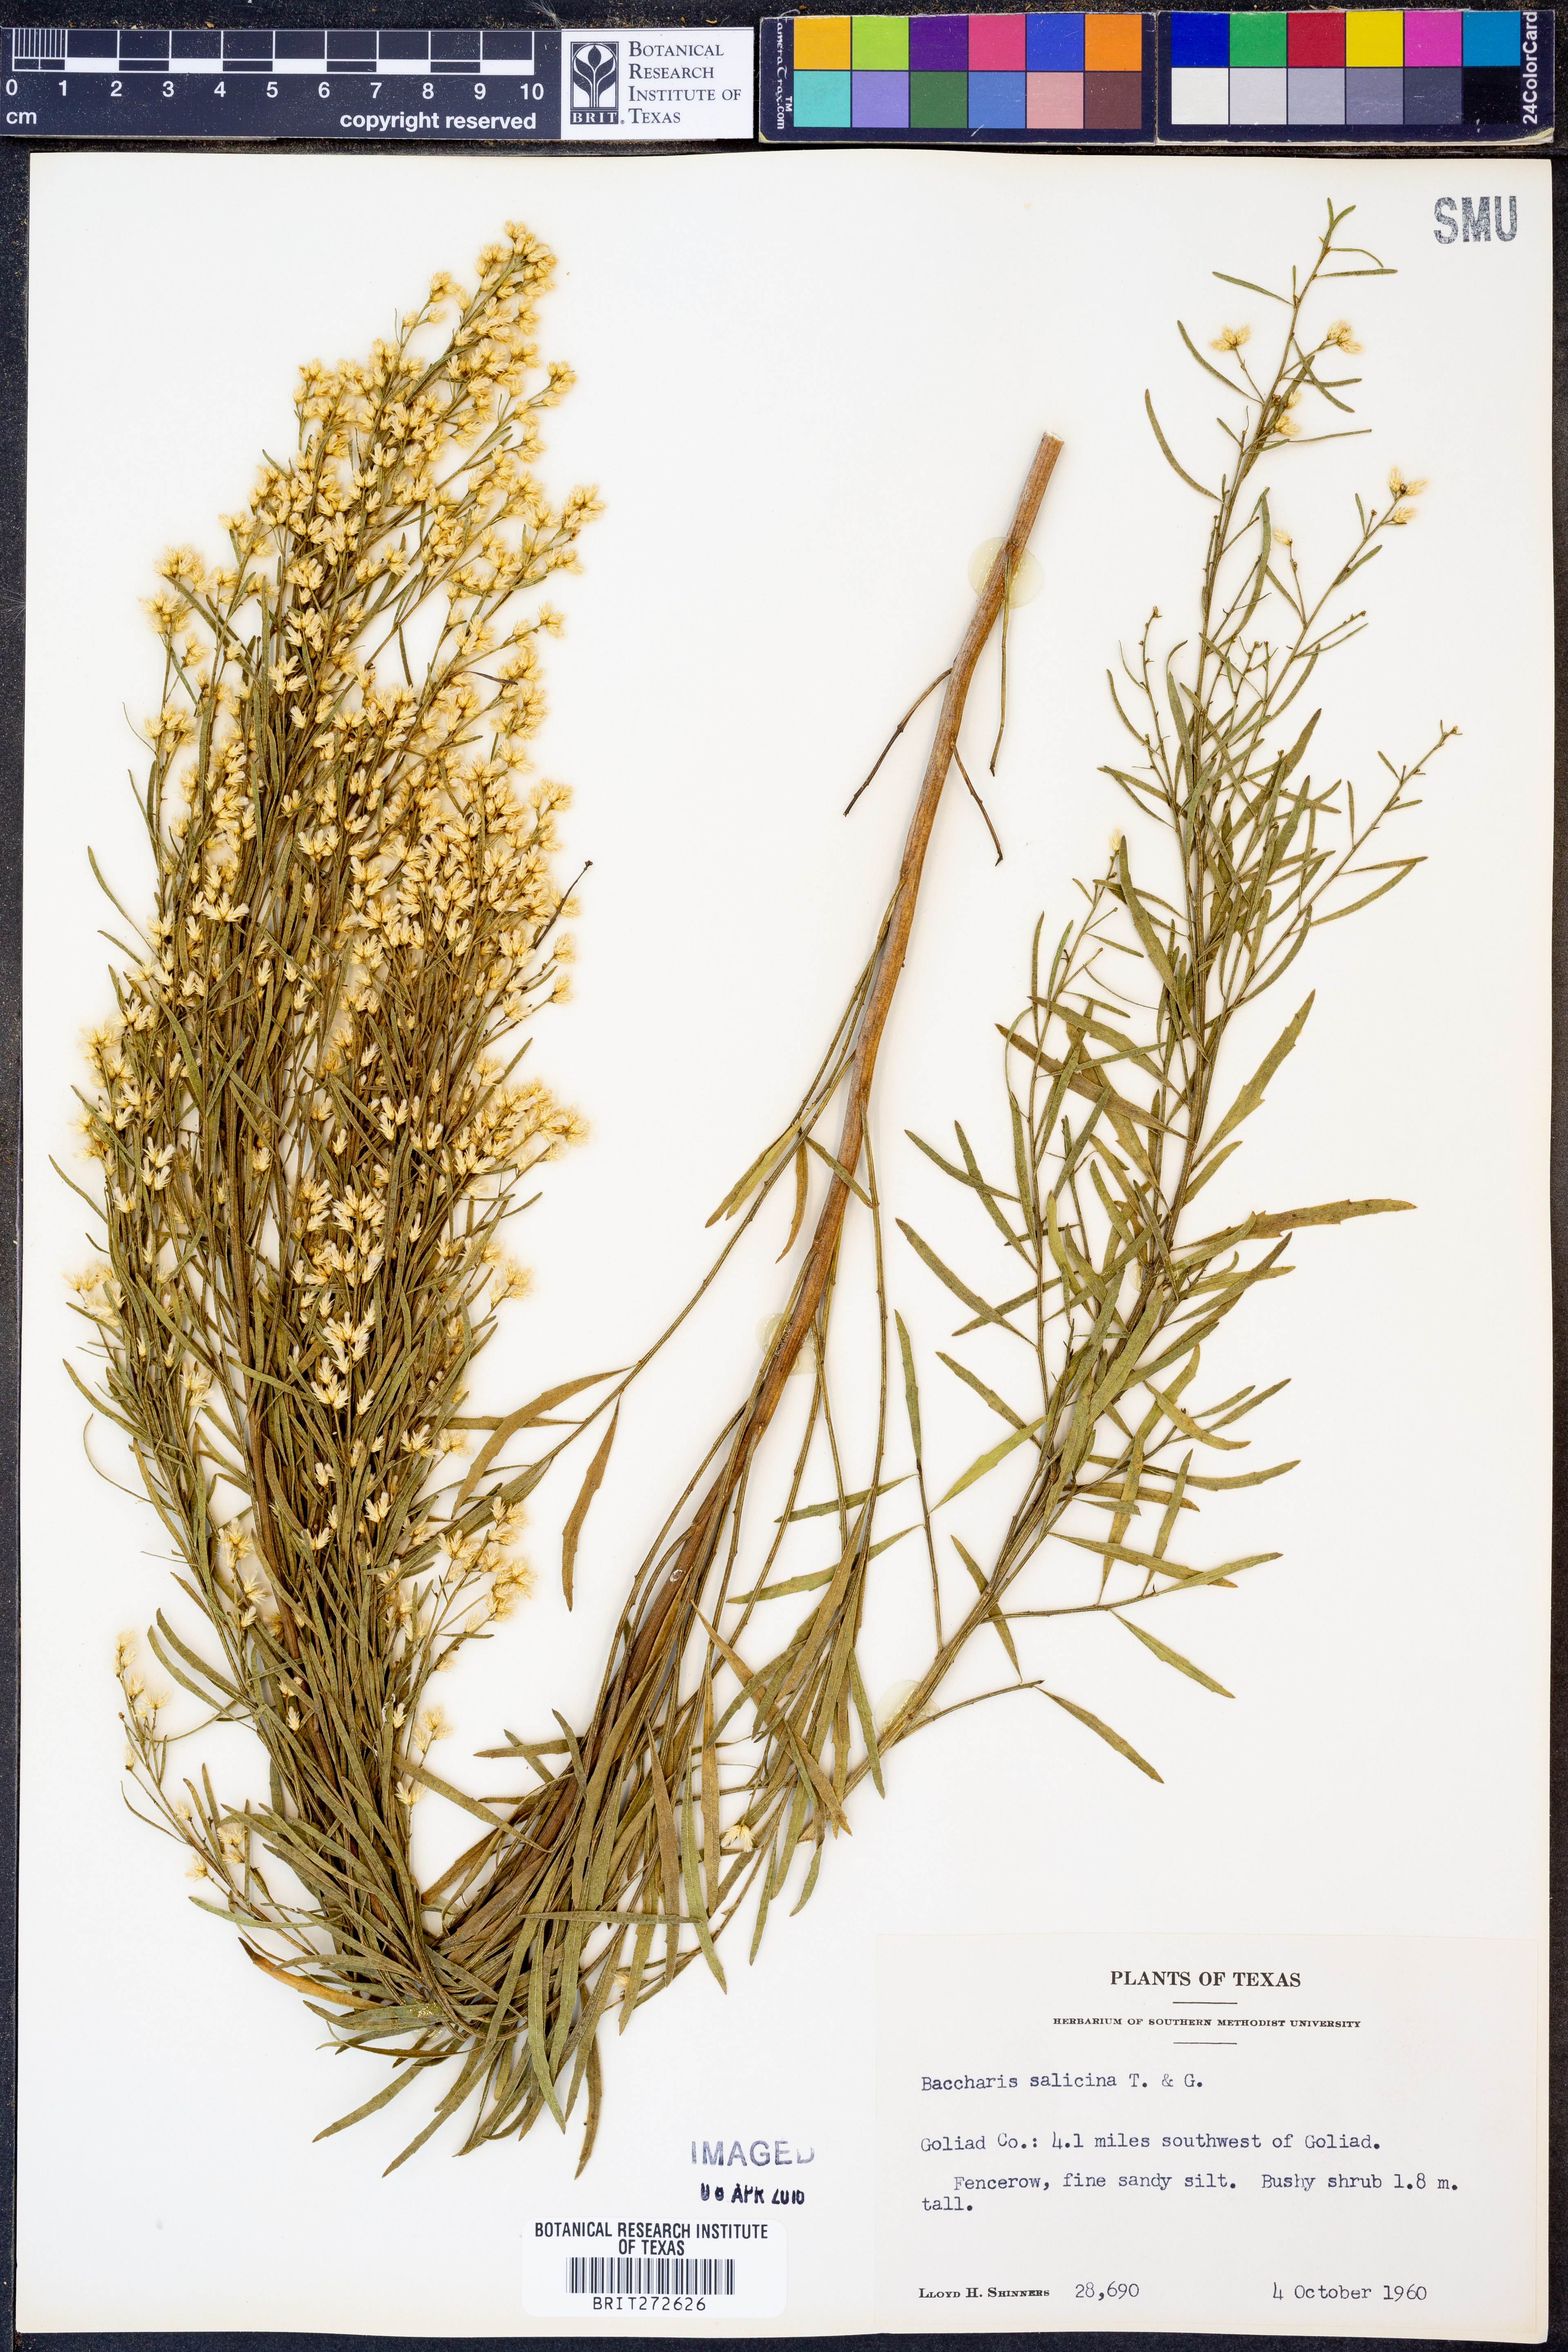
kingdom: Plantae
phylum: Tracheophyta
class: Magnoliopsida
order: Asterales
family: Asteraceae
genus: Baccharis
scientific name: Baccharis salicina
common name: Willow baccharis
